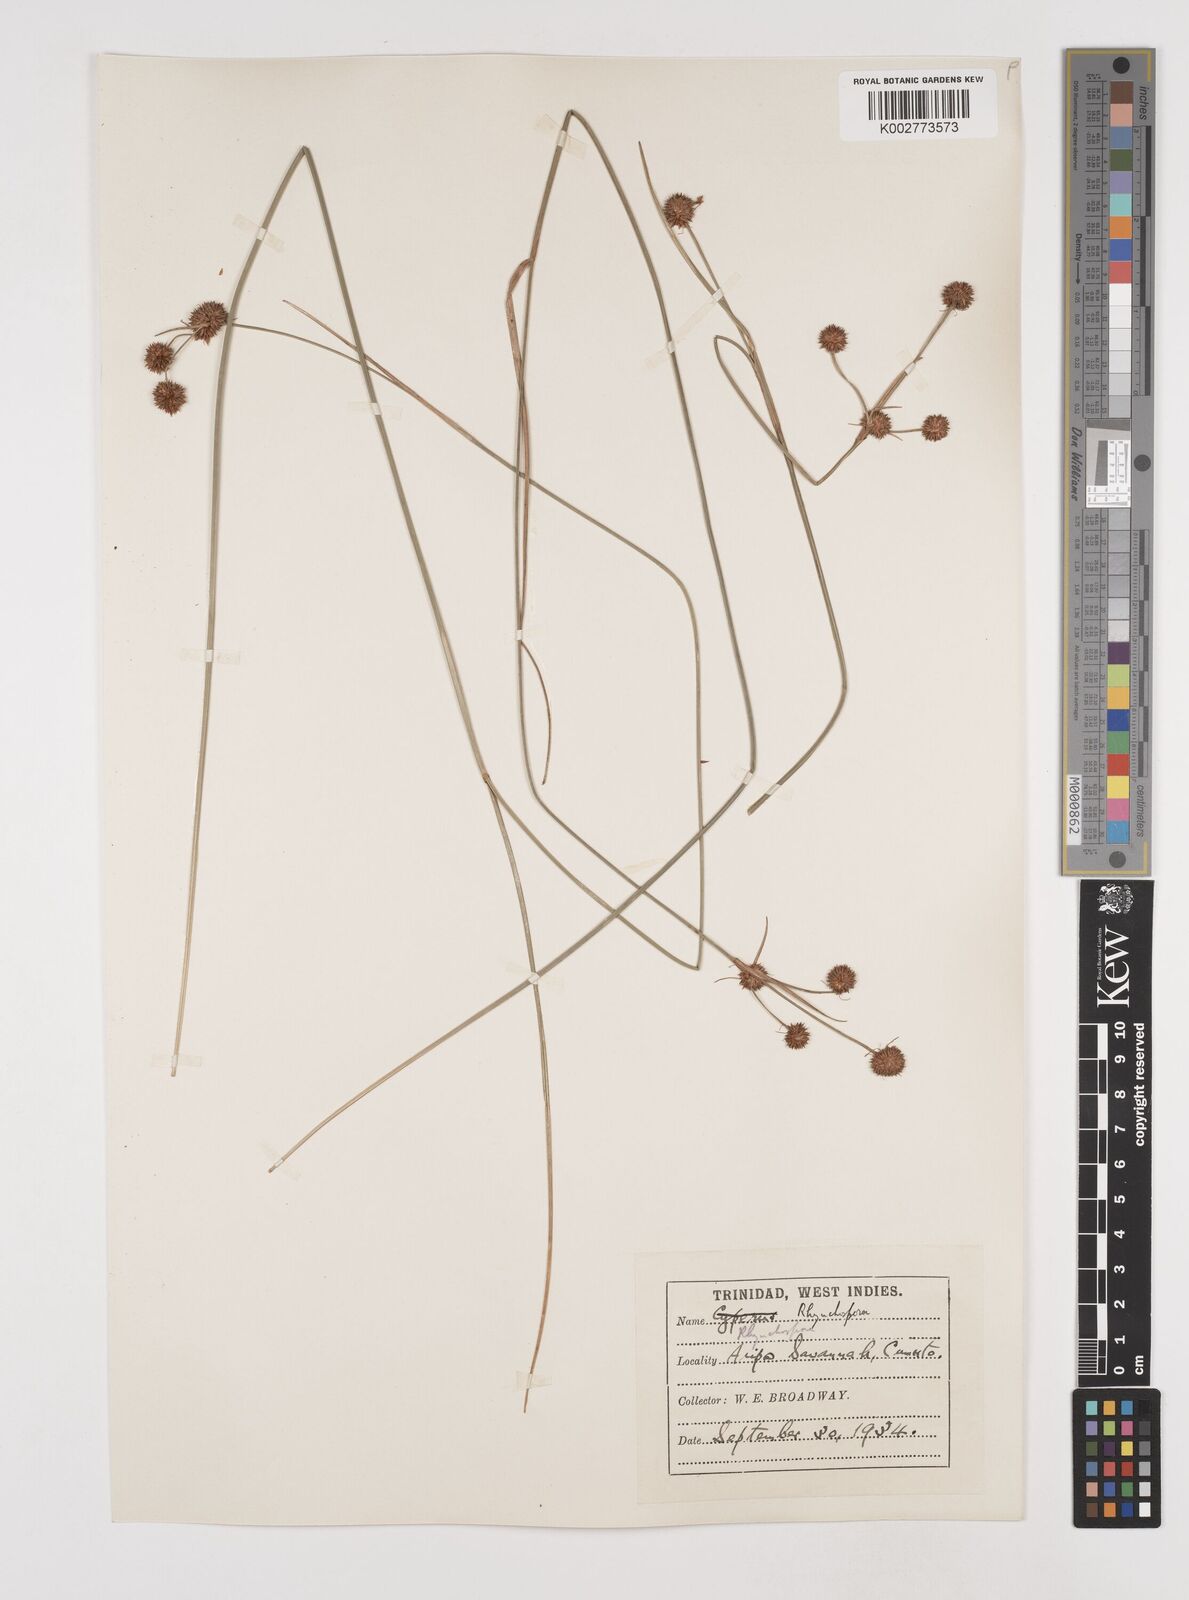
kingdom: Plantae
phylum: Tracheophyta
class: Liliopsida
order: Poales
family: Cyperaceae
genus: Rhynchospora
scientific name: Rhynchospora holoschoenoides
